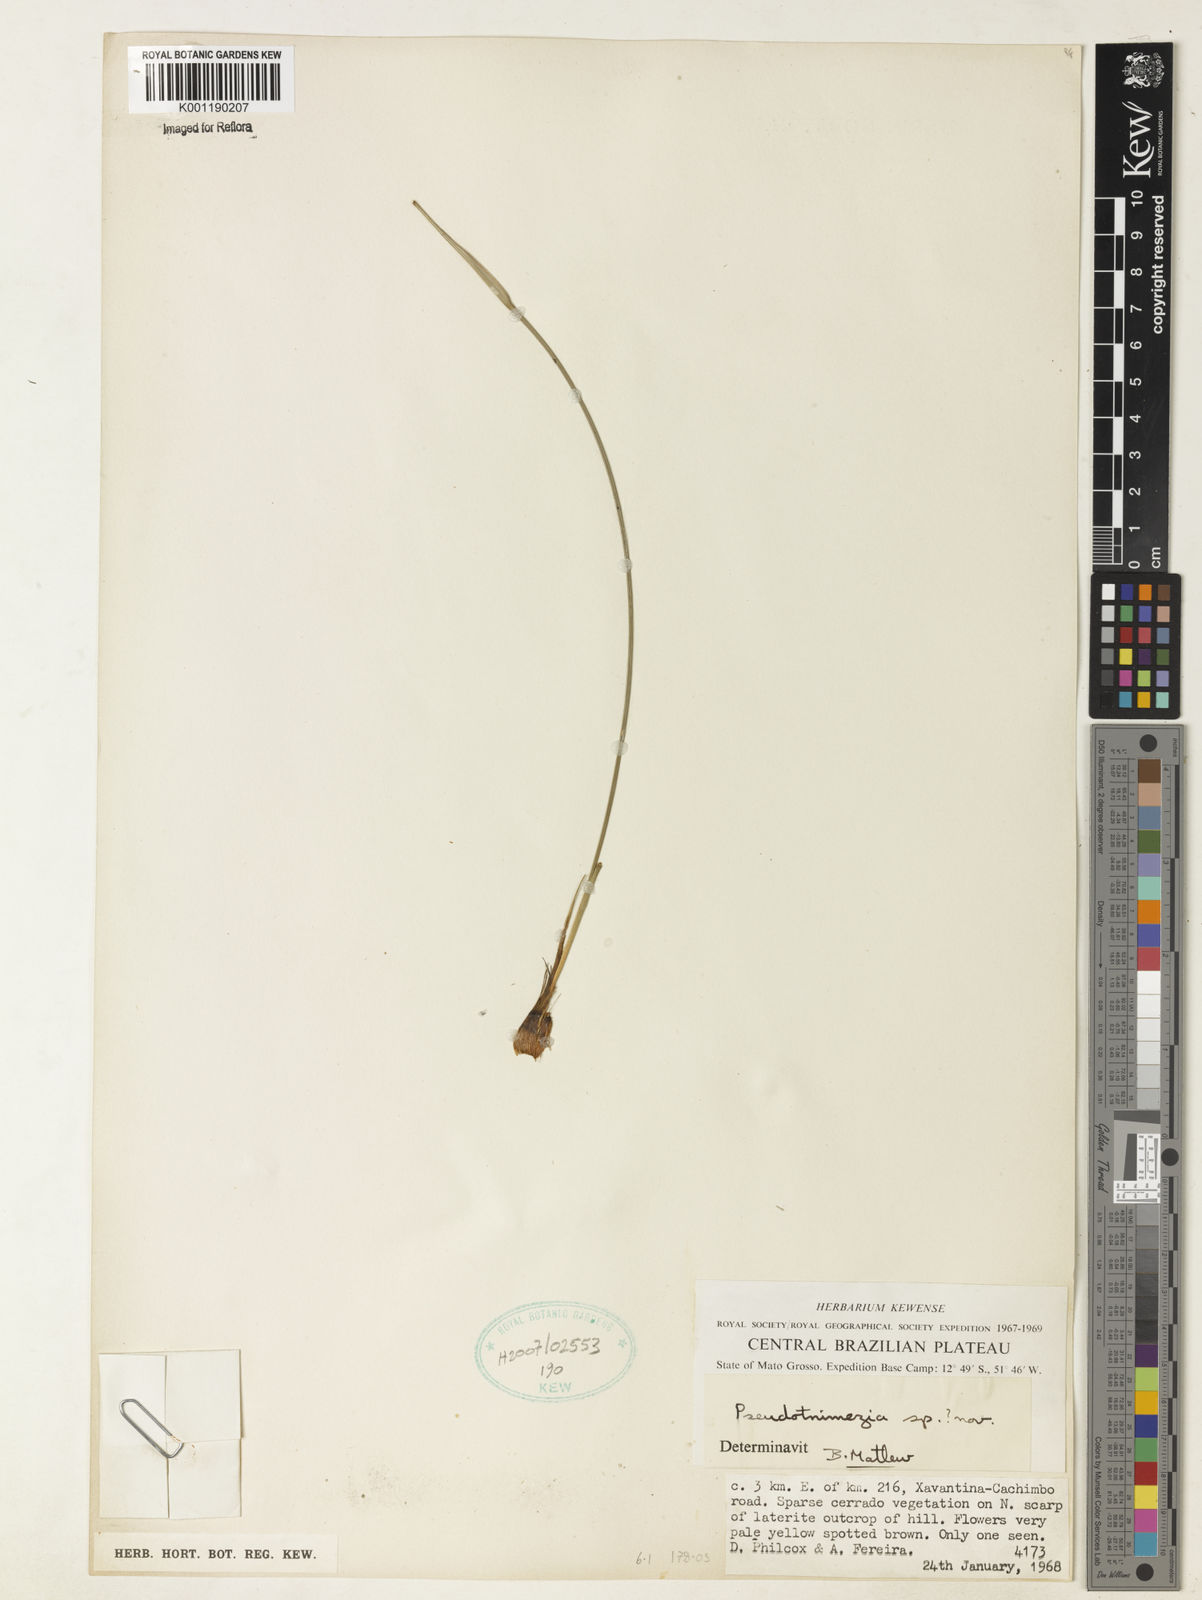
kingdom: Plantae
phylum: Tracheophyta
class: Liliopsida
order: Asparagales
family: Iridaceae
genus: Trimezia
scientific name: Trimezia
